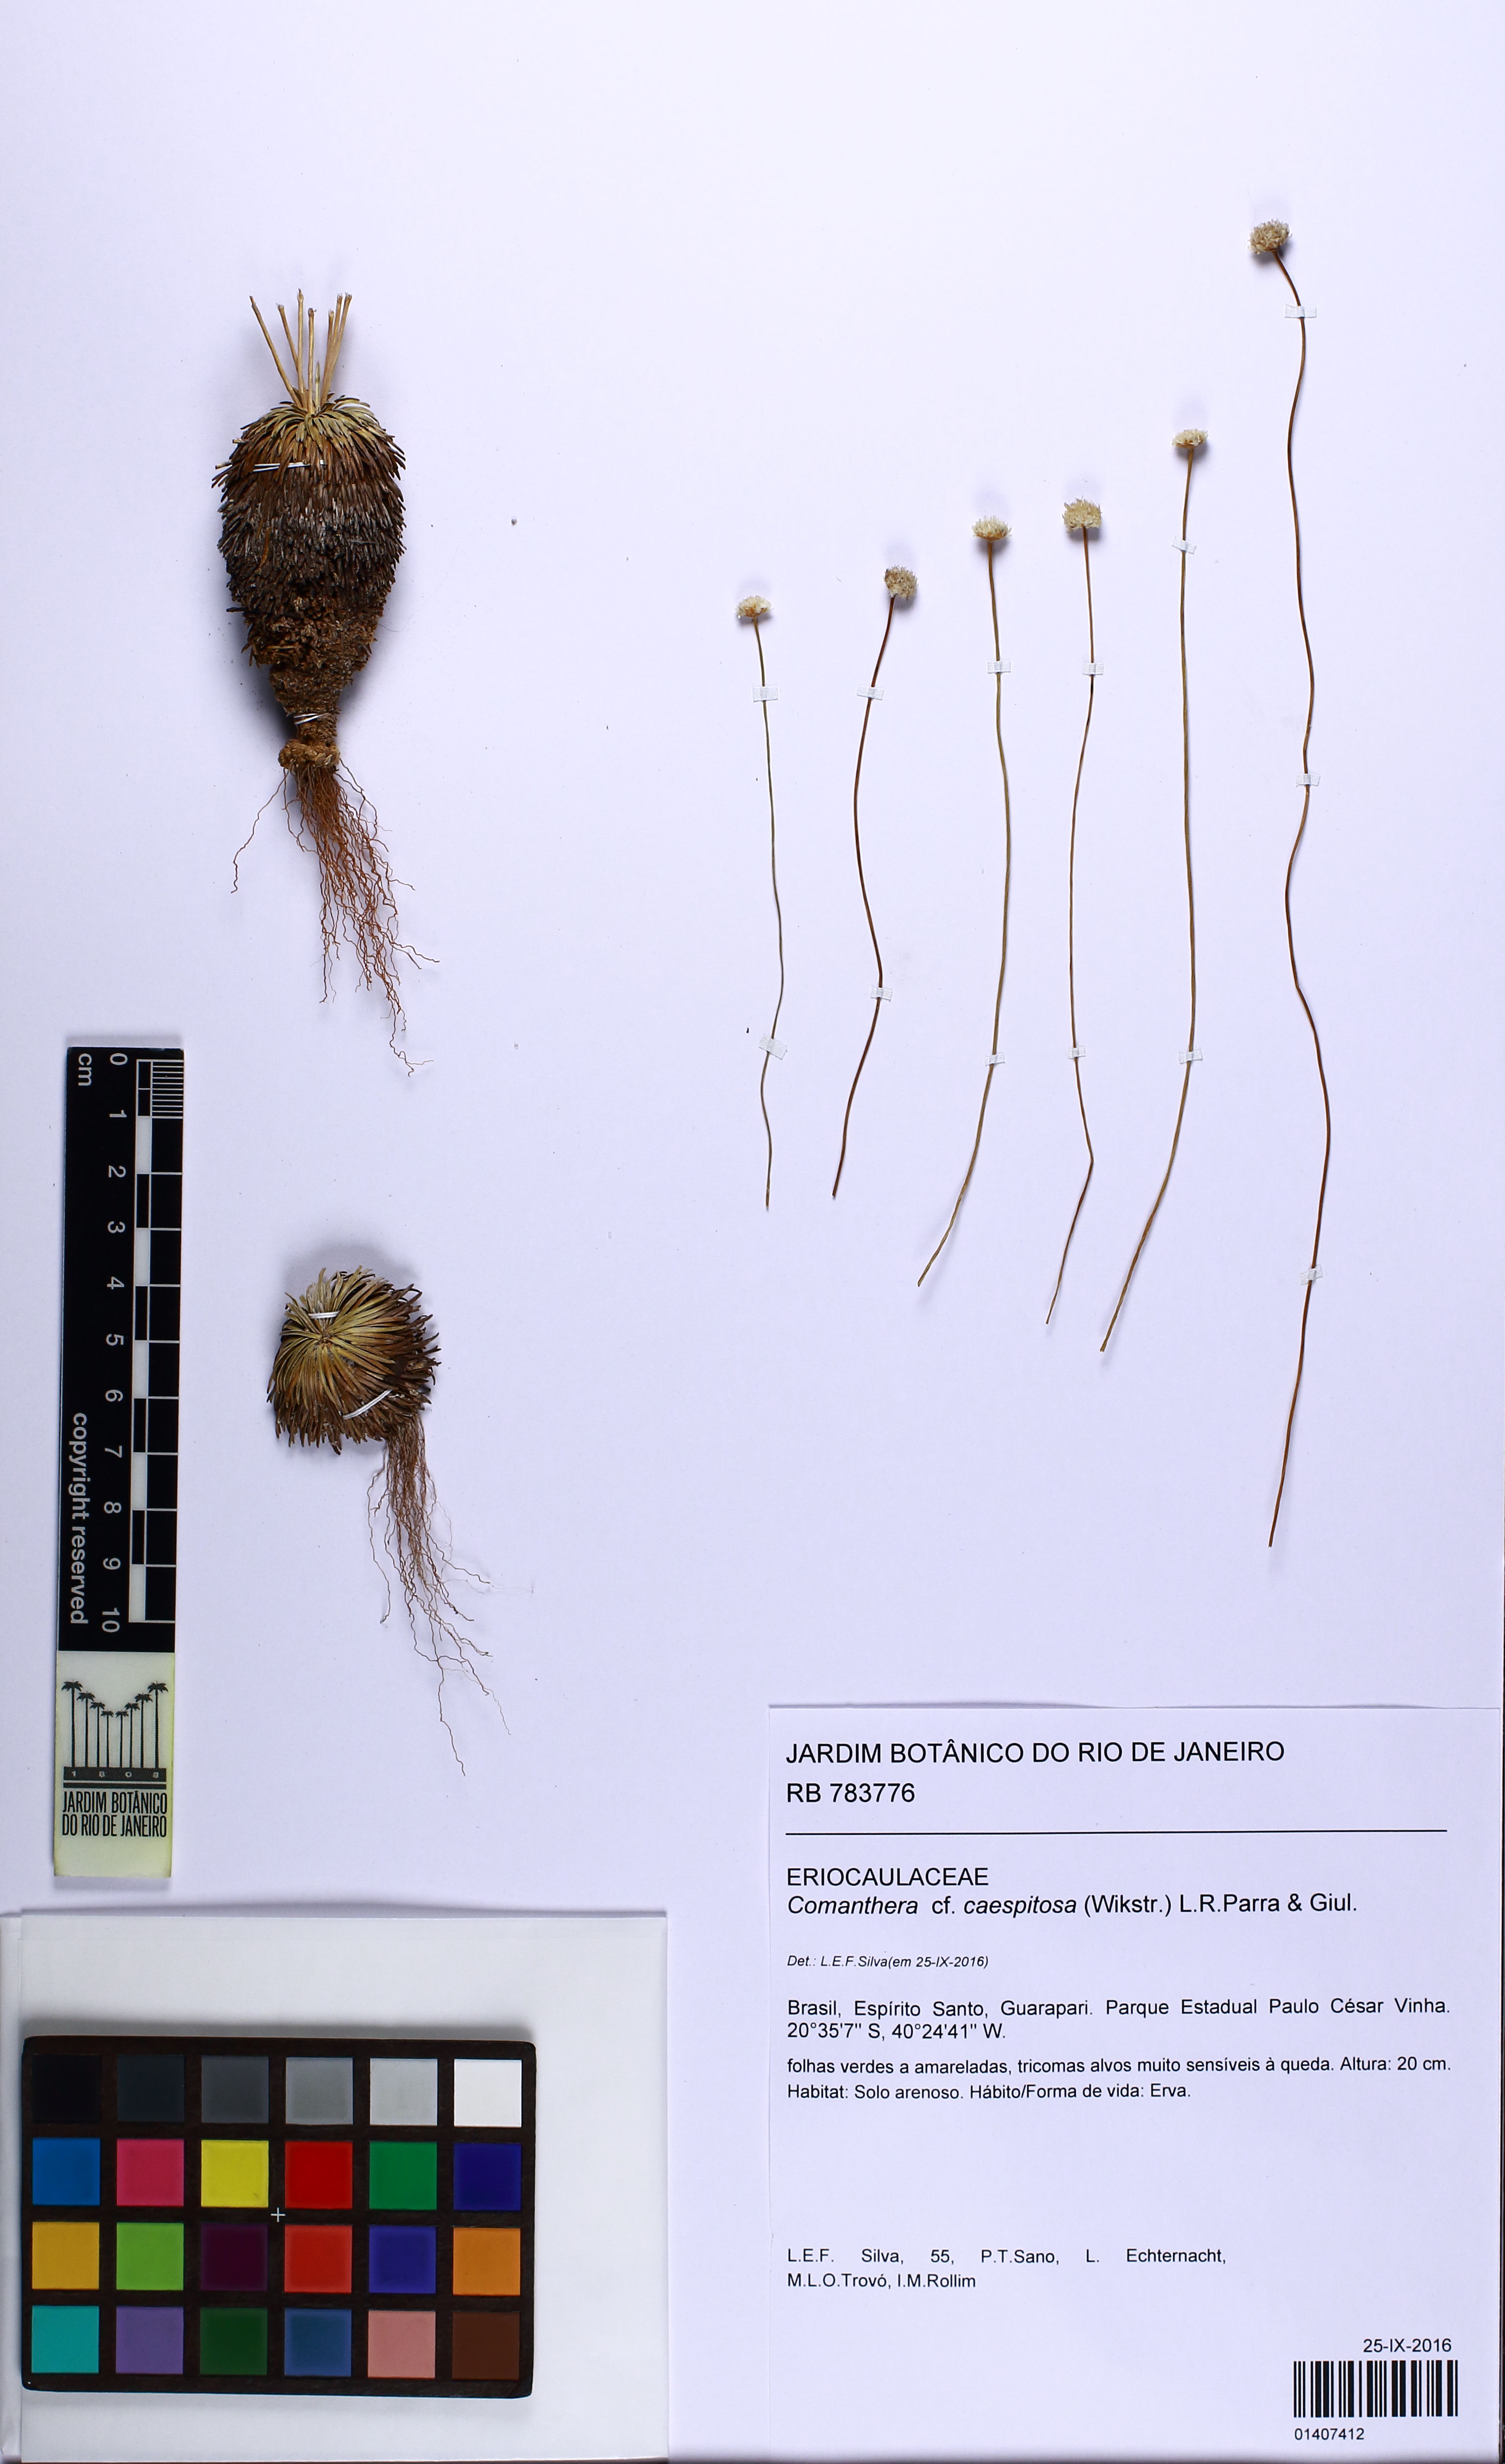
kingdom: Plantae
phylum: Tracheophyta
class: Liliopsida
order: Poales
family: Eriocaulaceae
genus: Comanthera
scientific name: Comanthera caespitosa
